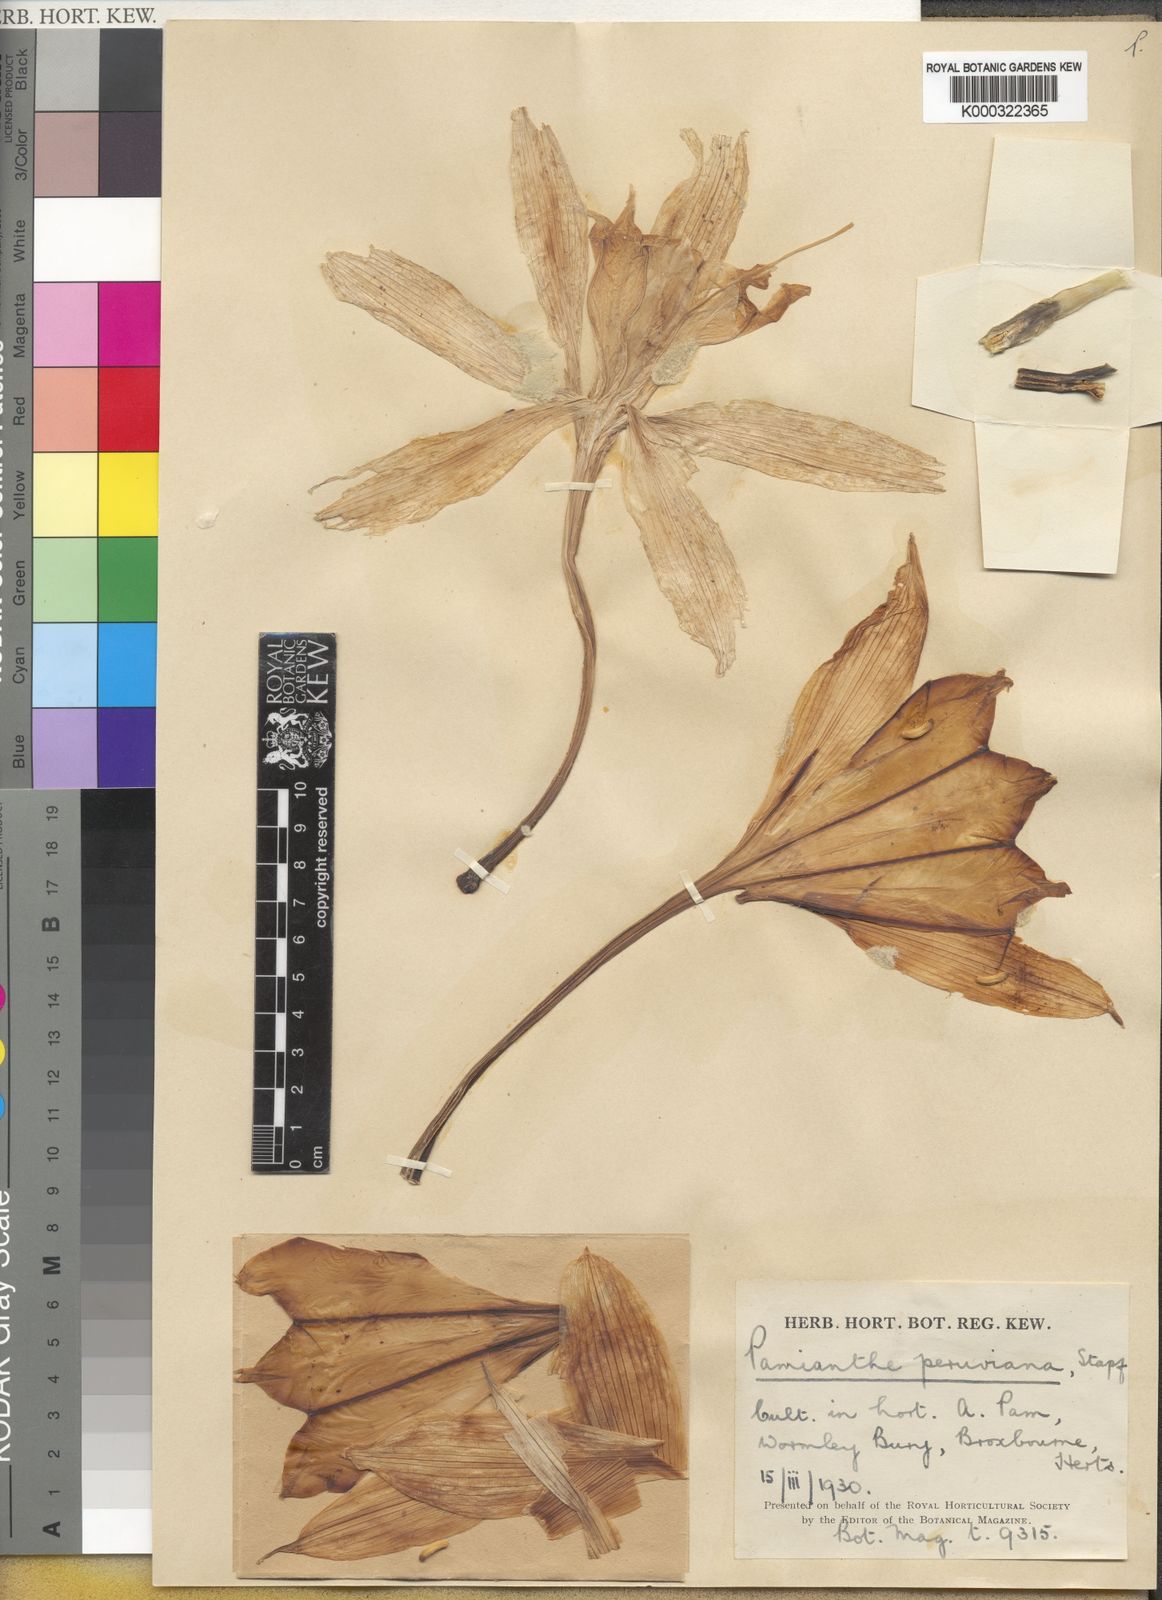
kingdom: Plantae
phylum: Tracheophyta
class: Liliopsida
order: Asparagales
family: Amaryllidaceae
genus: Pamianthe
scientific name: Pamianthe peruviana
